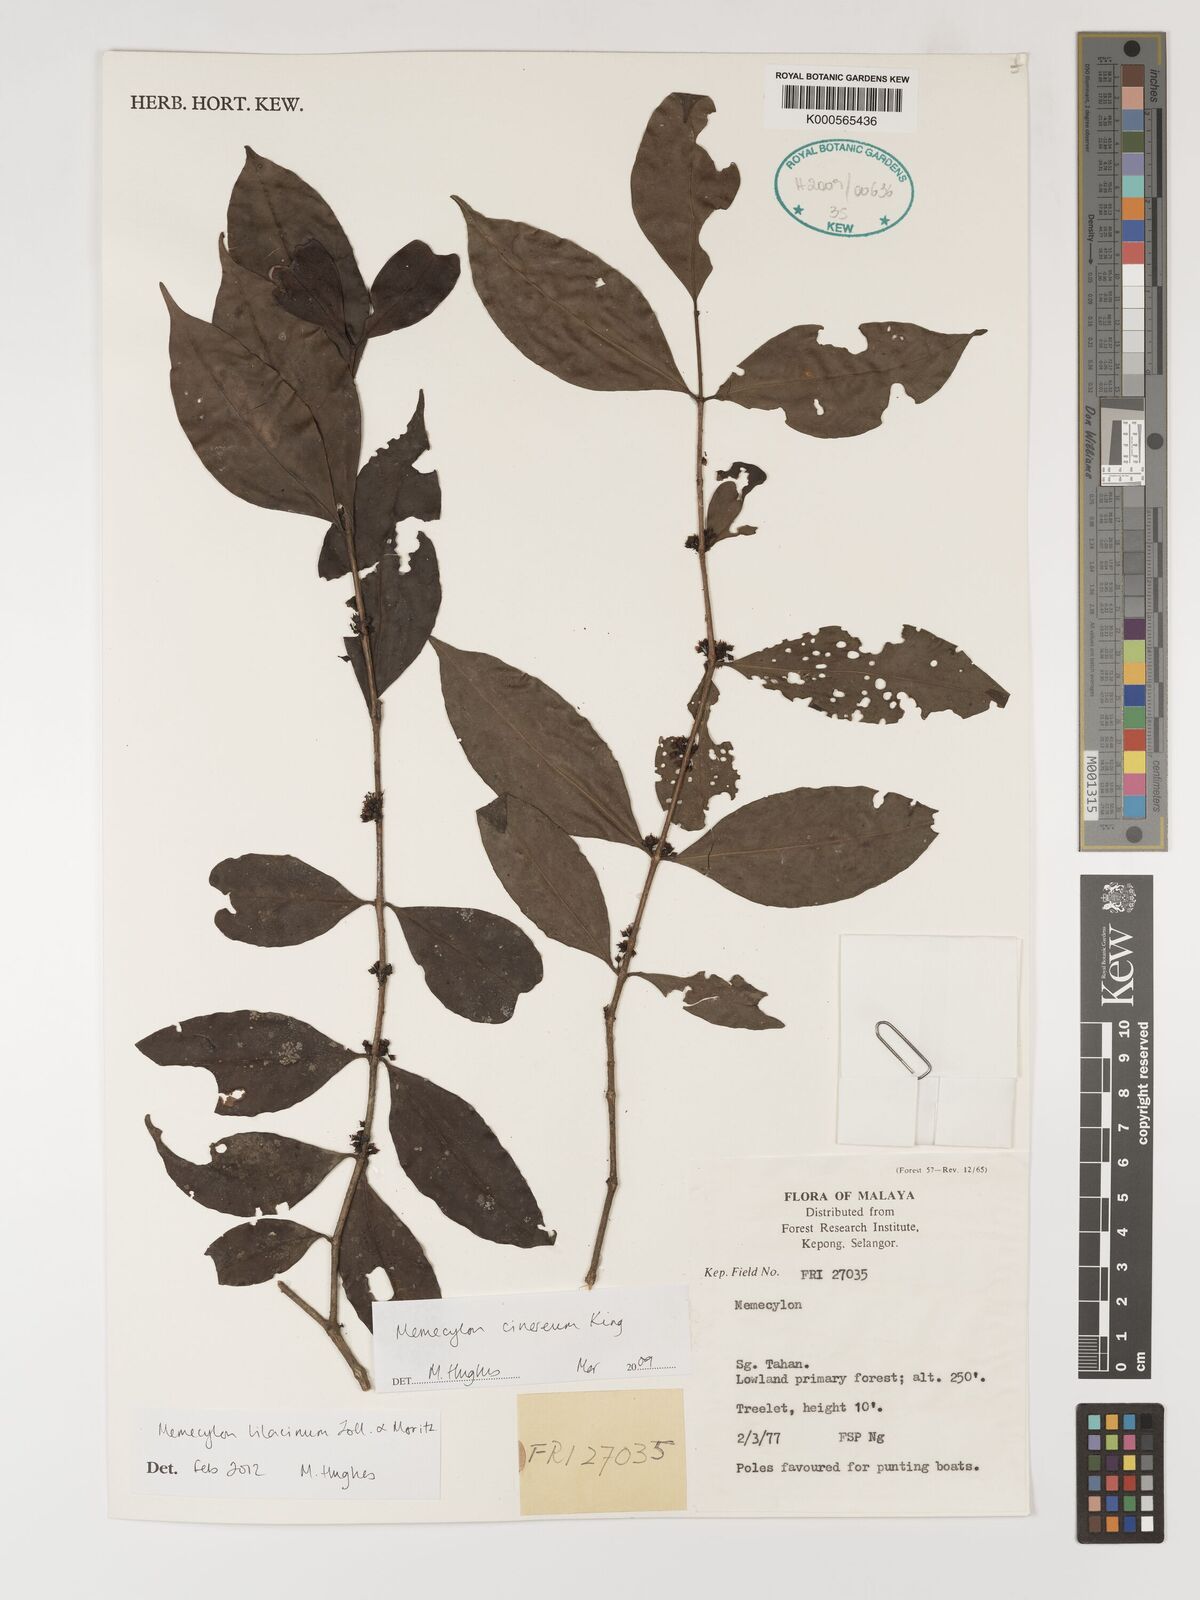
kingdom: Plantae
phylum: Tracheophyta
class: Magnoliopsida
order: Myrtales
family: Melastomataceae
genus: Memecylon
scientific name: Memecylon lilacinum
